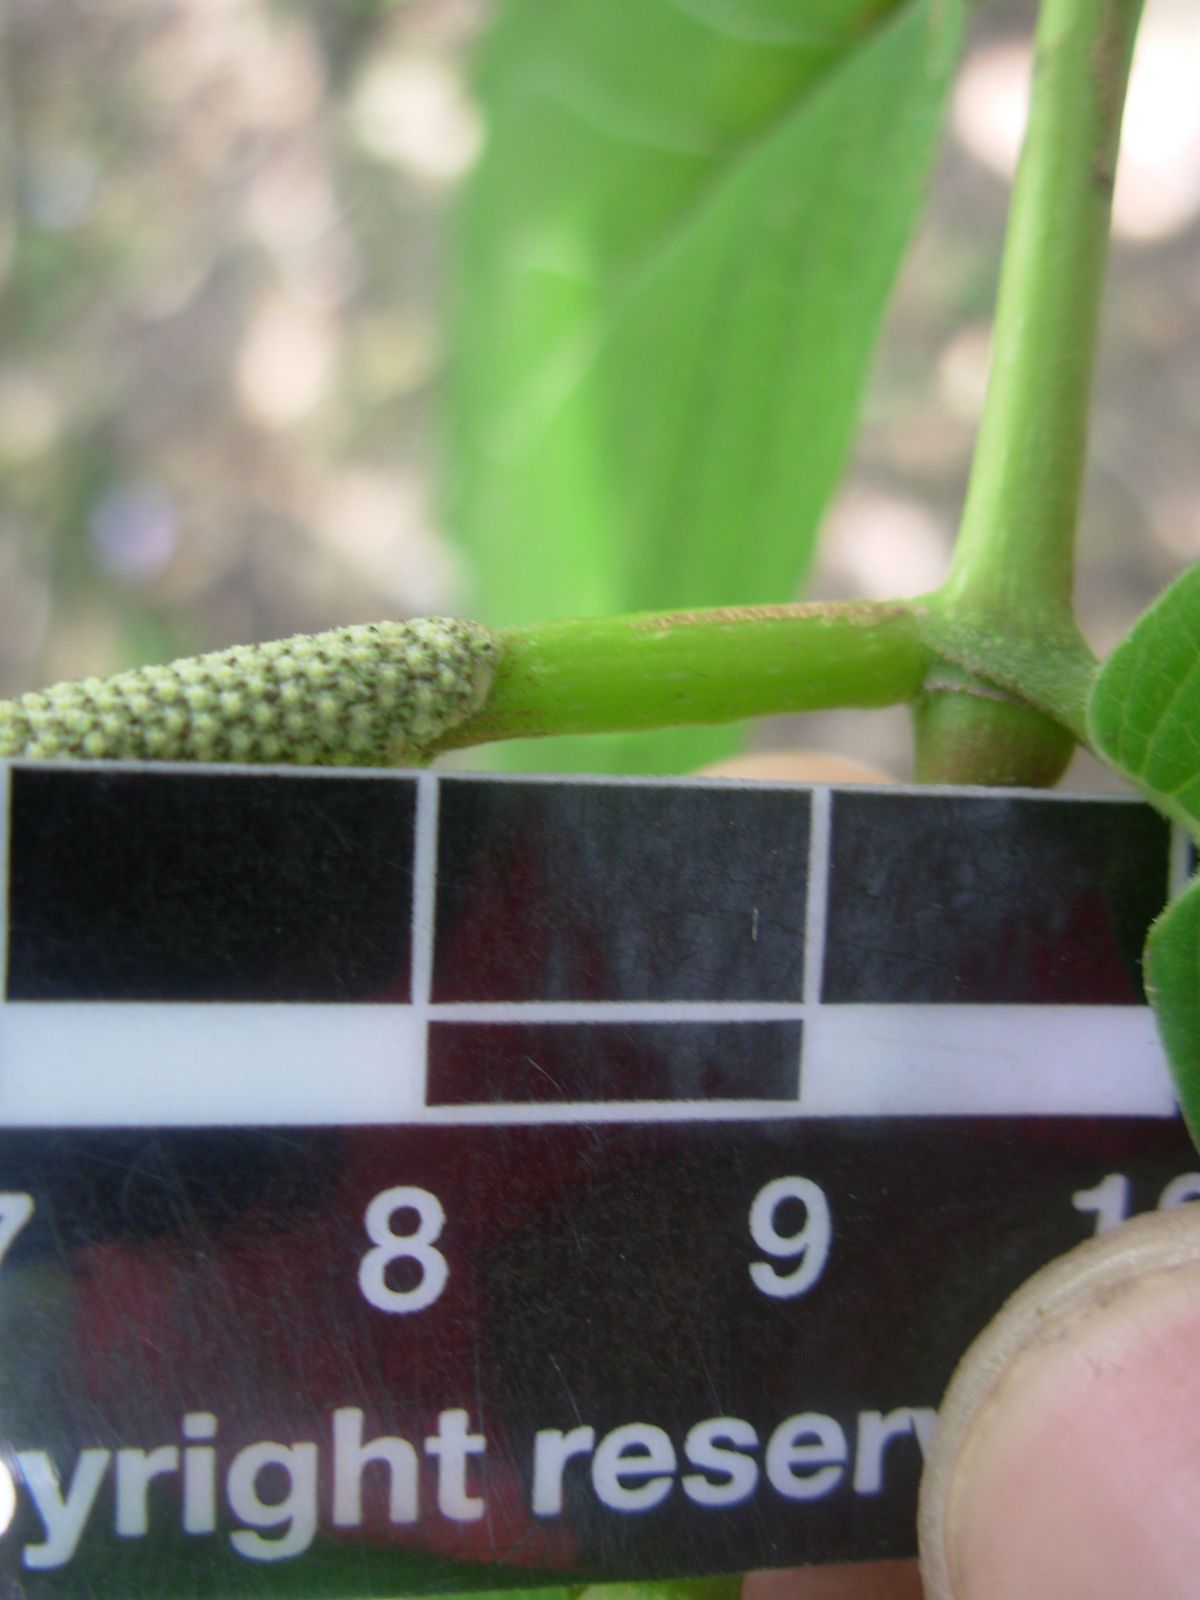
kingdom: Plantae
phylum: Tracheophyta
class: Magnoliopsida
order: Piperales
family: Piperaceae
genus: Piper
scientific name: Piper aduncum
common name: Spiked pepper
